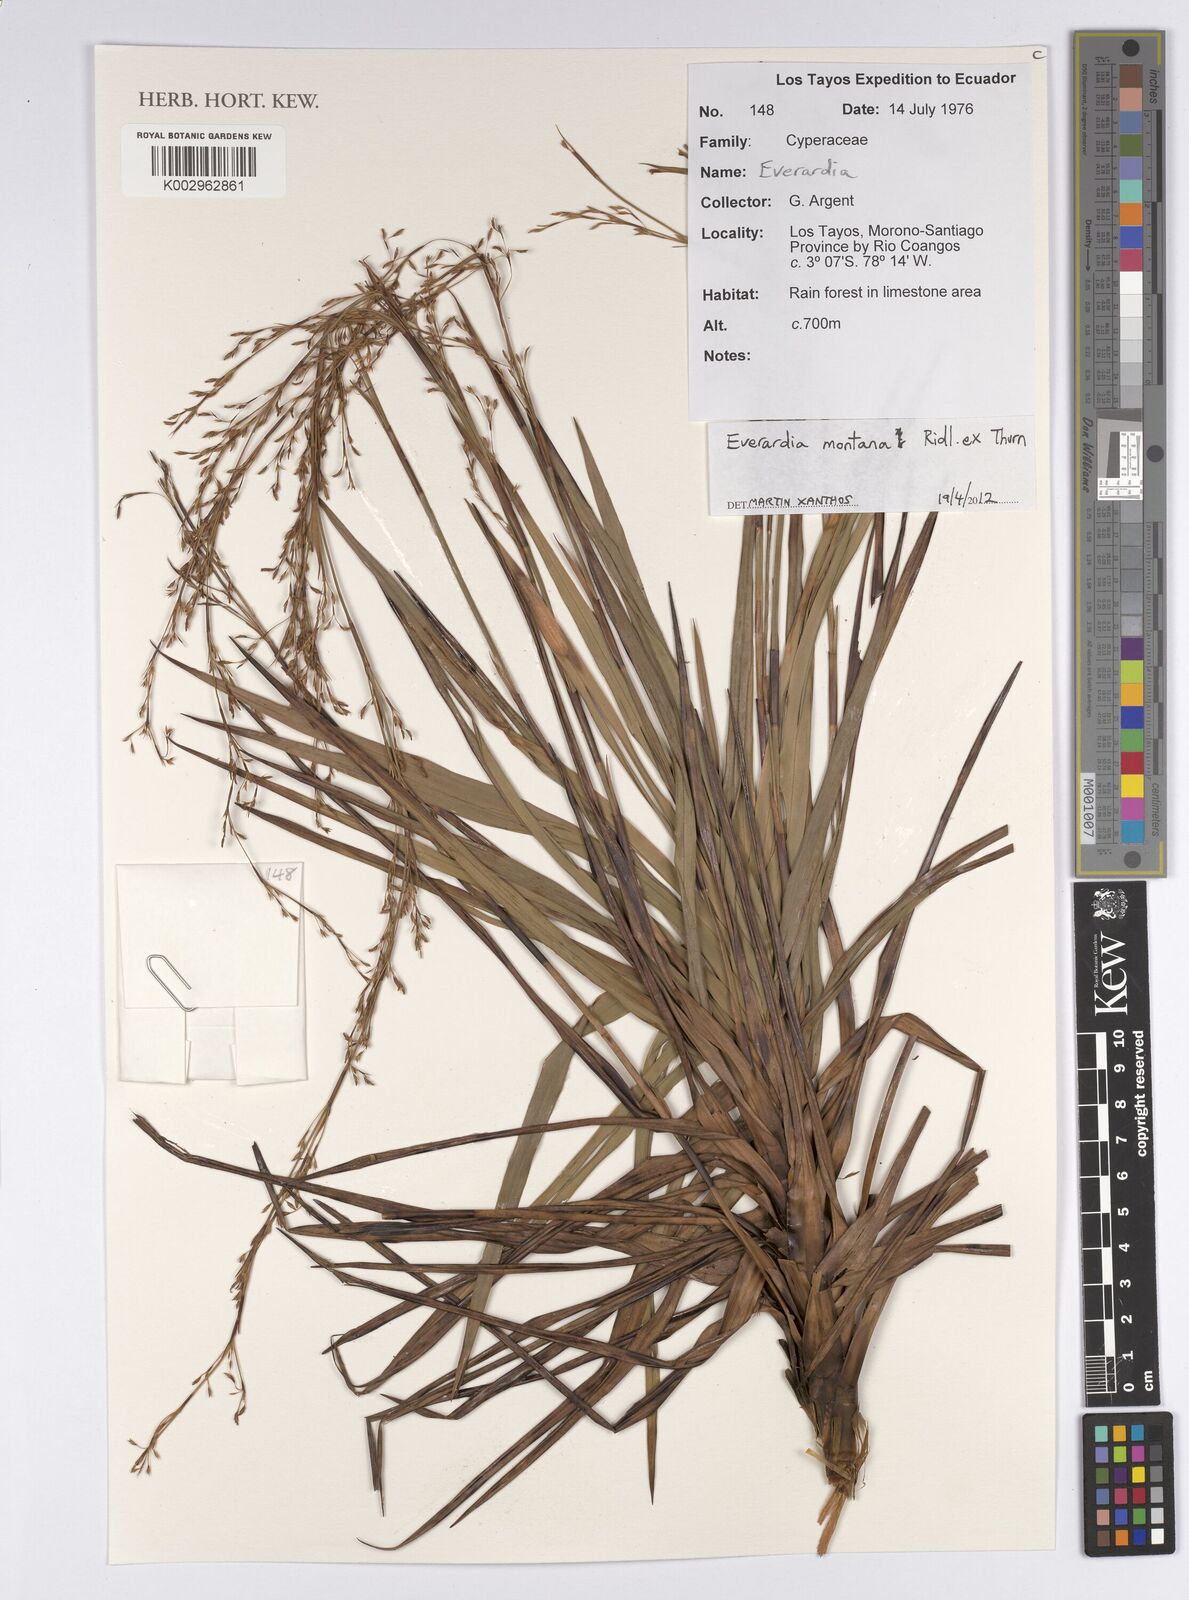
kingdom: Plantae
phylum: Tracheophyta
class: Liliopsida
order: Poales
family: Cyperaceae
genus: Cephalocarpus
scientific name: Cephalocarpus montanus
